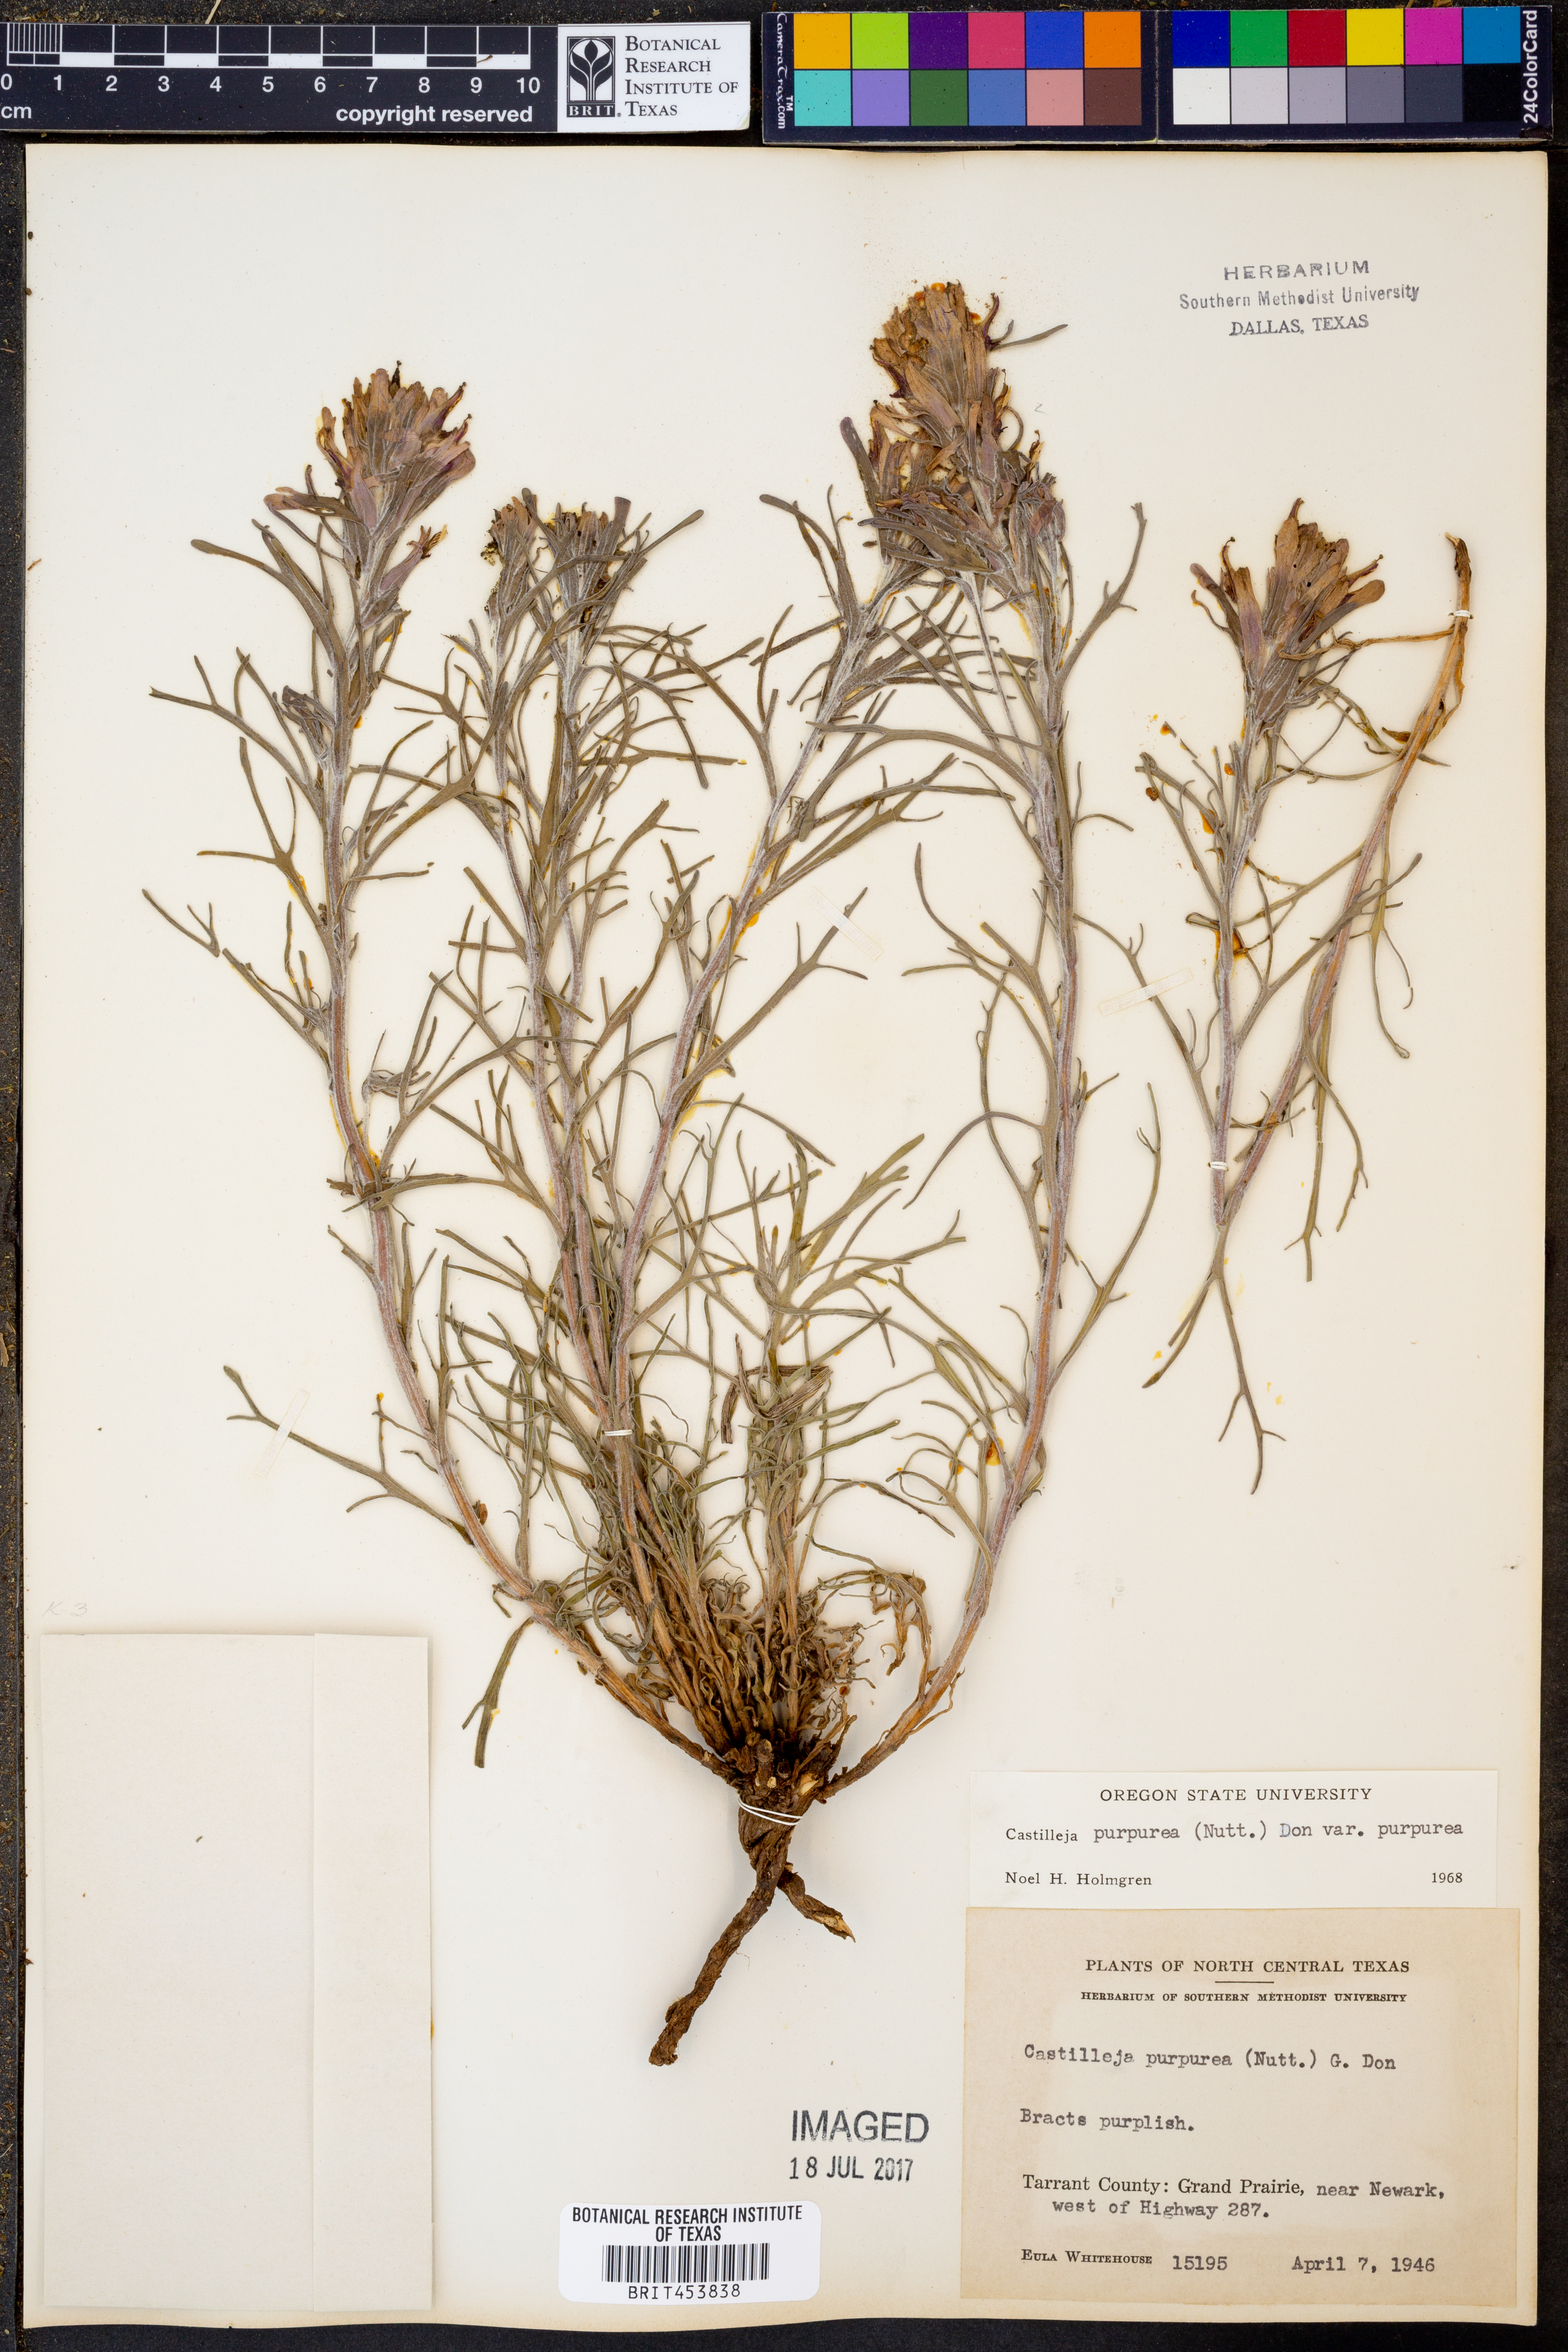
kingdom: Plantae
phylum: Tracheophyta
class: Magnoliopsida
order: Lamiales
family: Orobanchaceae
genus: Castilleja
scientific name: Castilleja purpurea
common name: Plains paintbrush
